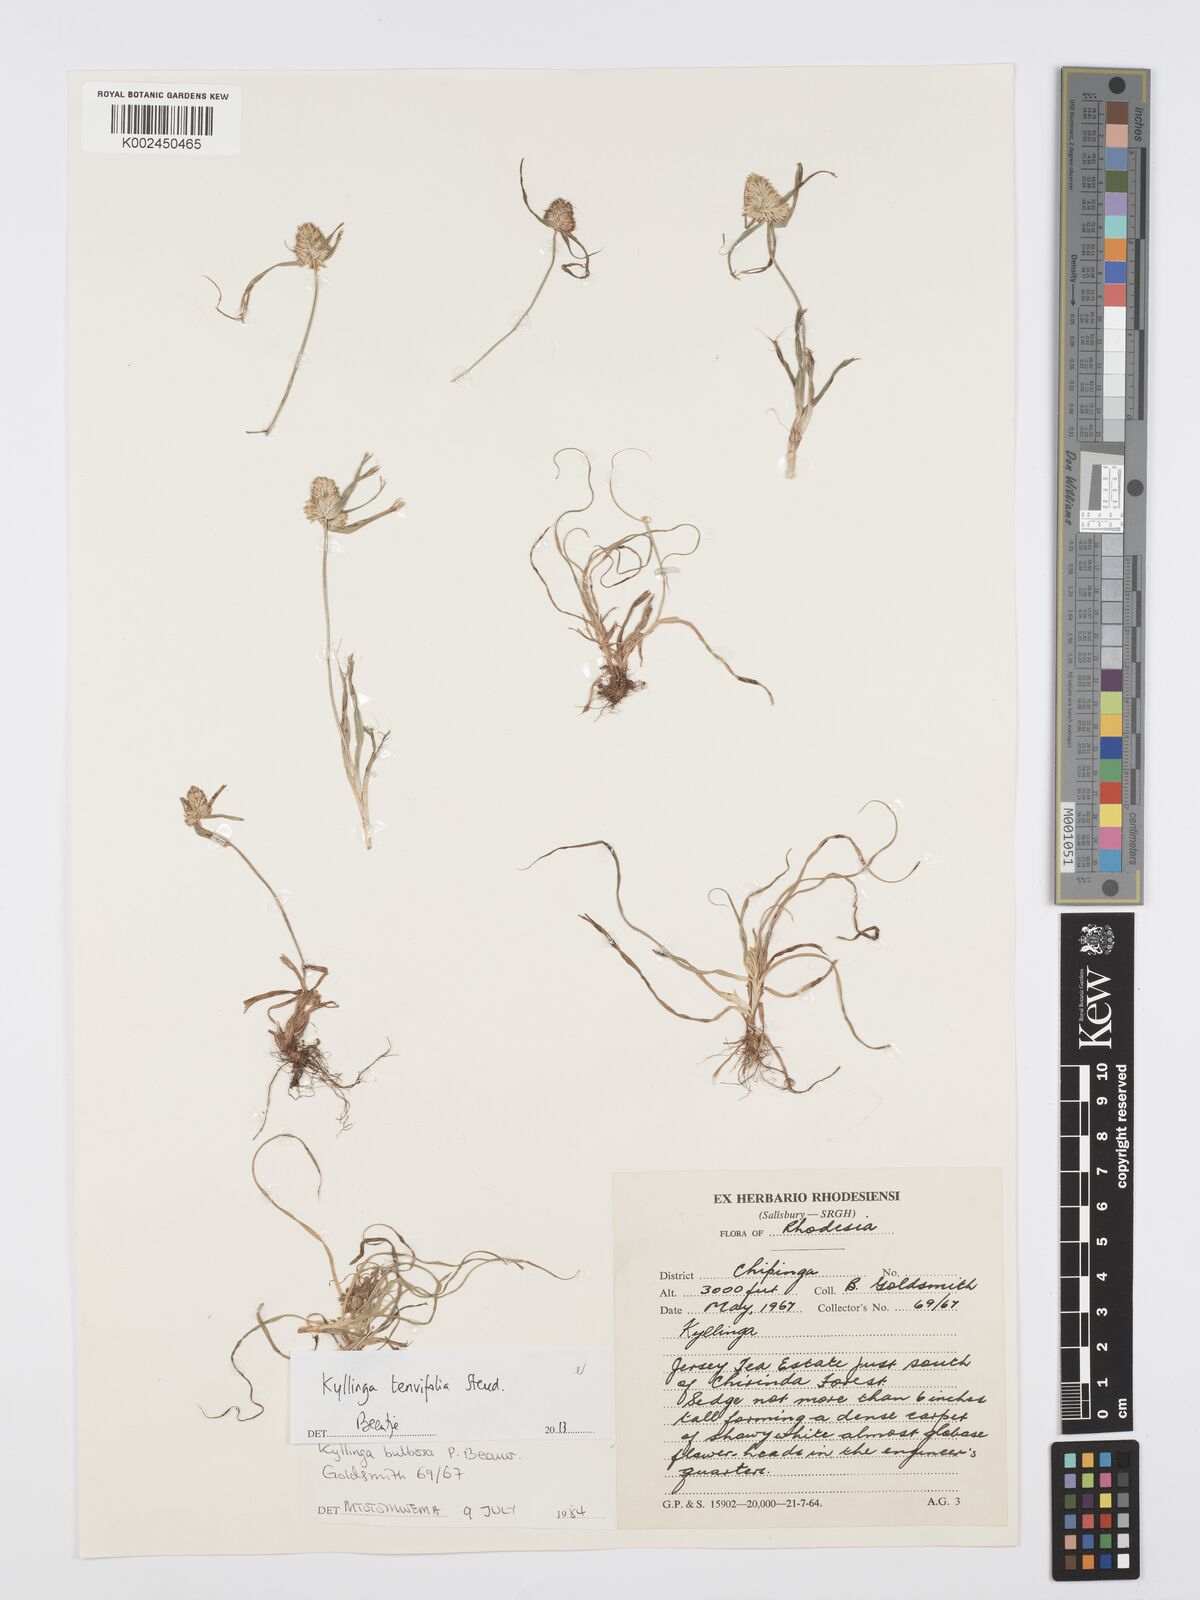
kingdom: Plantae
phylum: Tracheophyta
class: Liliopsida
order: Poales
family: Cyperaceae
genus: Cyperus
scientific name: Cyperus tenuifolius
